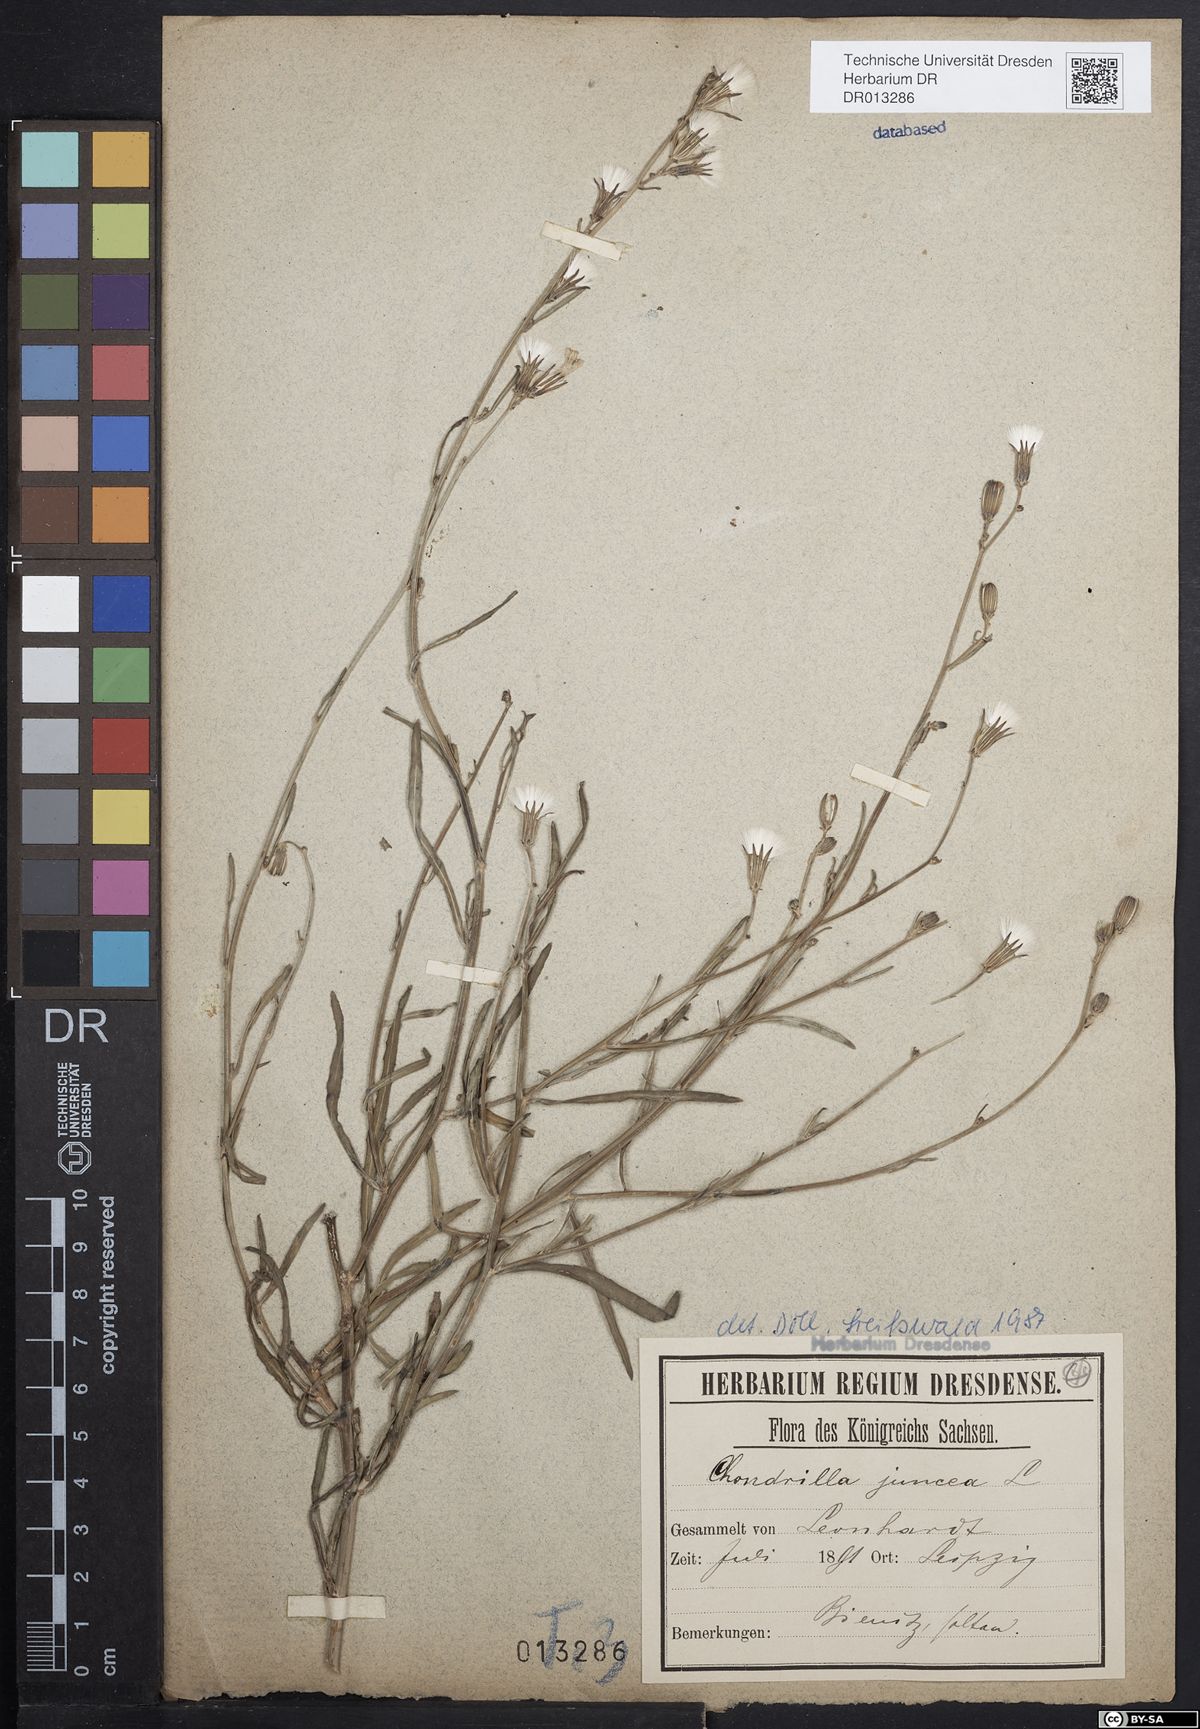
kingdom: Plantae
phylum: Tracheophyta
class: Magnoliopsida
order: Asterales
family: Asteraceae
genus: Chondrilla
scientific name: Chondrilla juncea
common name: Skeleton weed
